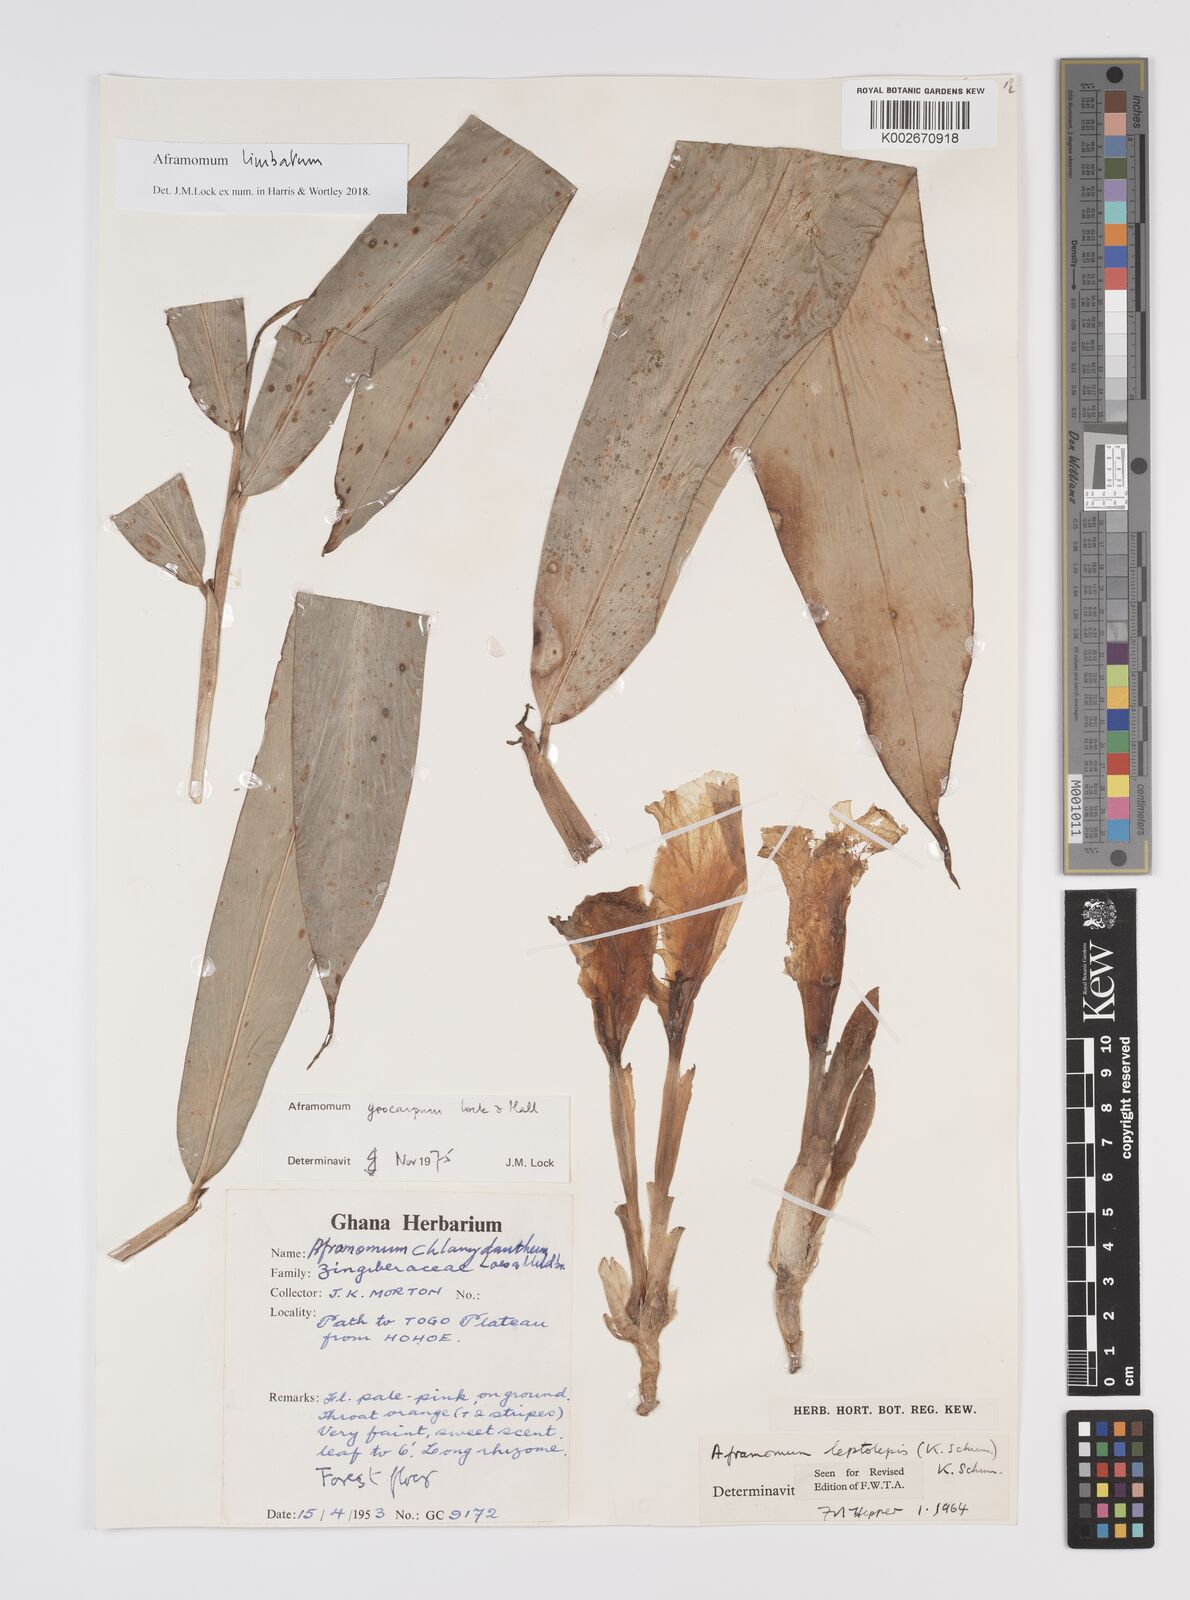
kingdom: Plantae
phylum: Tracheophyta
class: Liliopsida
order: Zingiberales
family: Zingiberaceae
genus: Aframomum
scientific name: Aframomum limbatum
